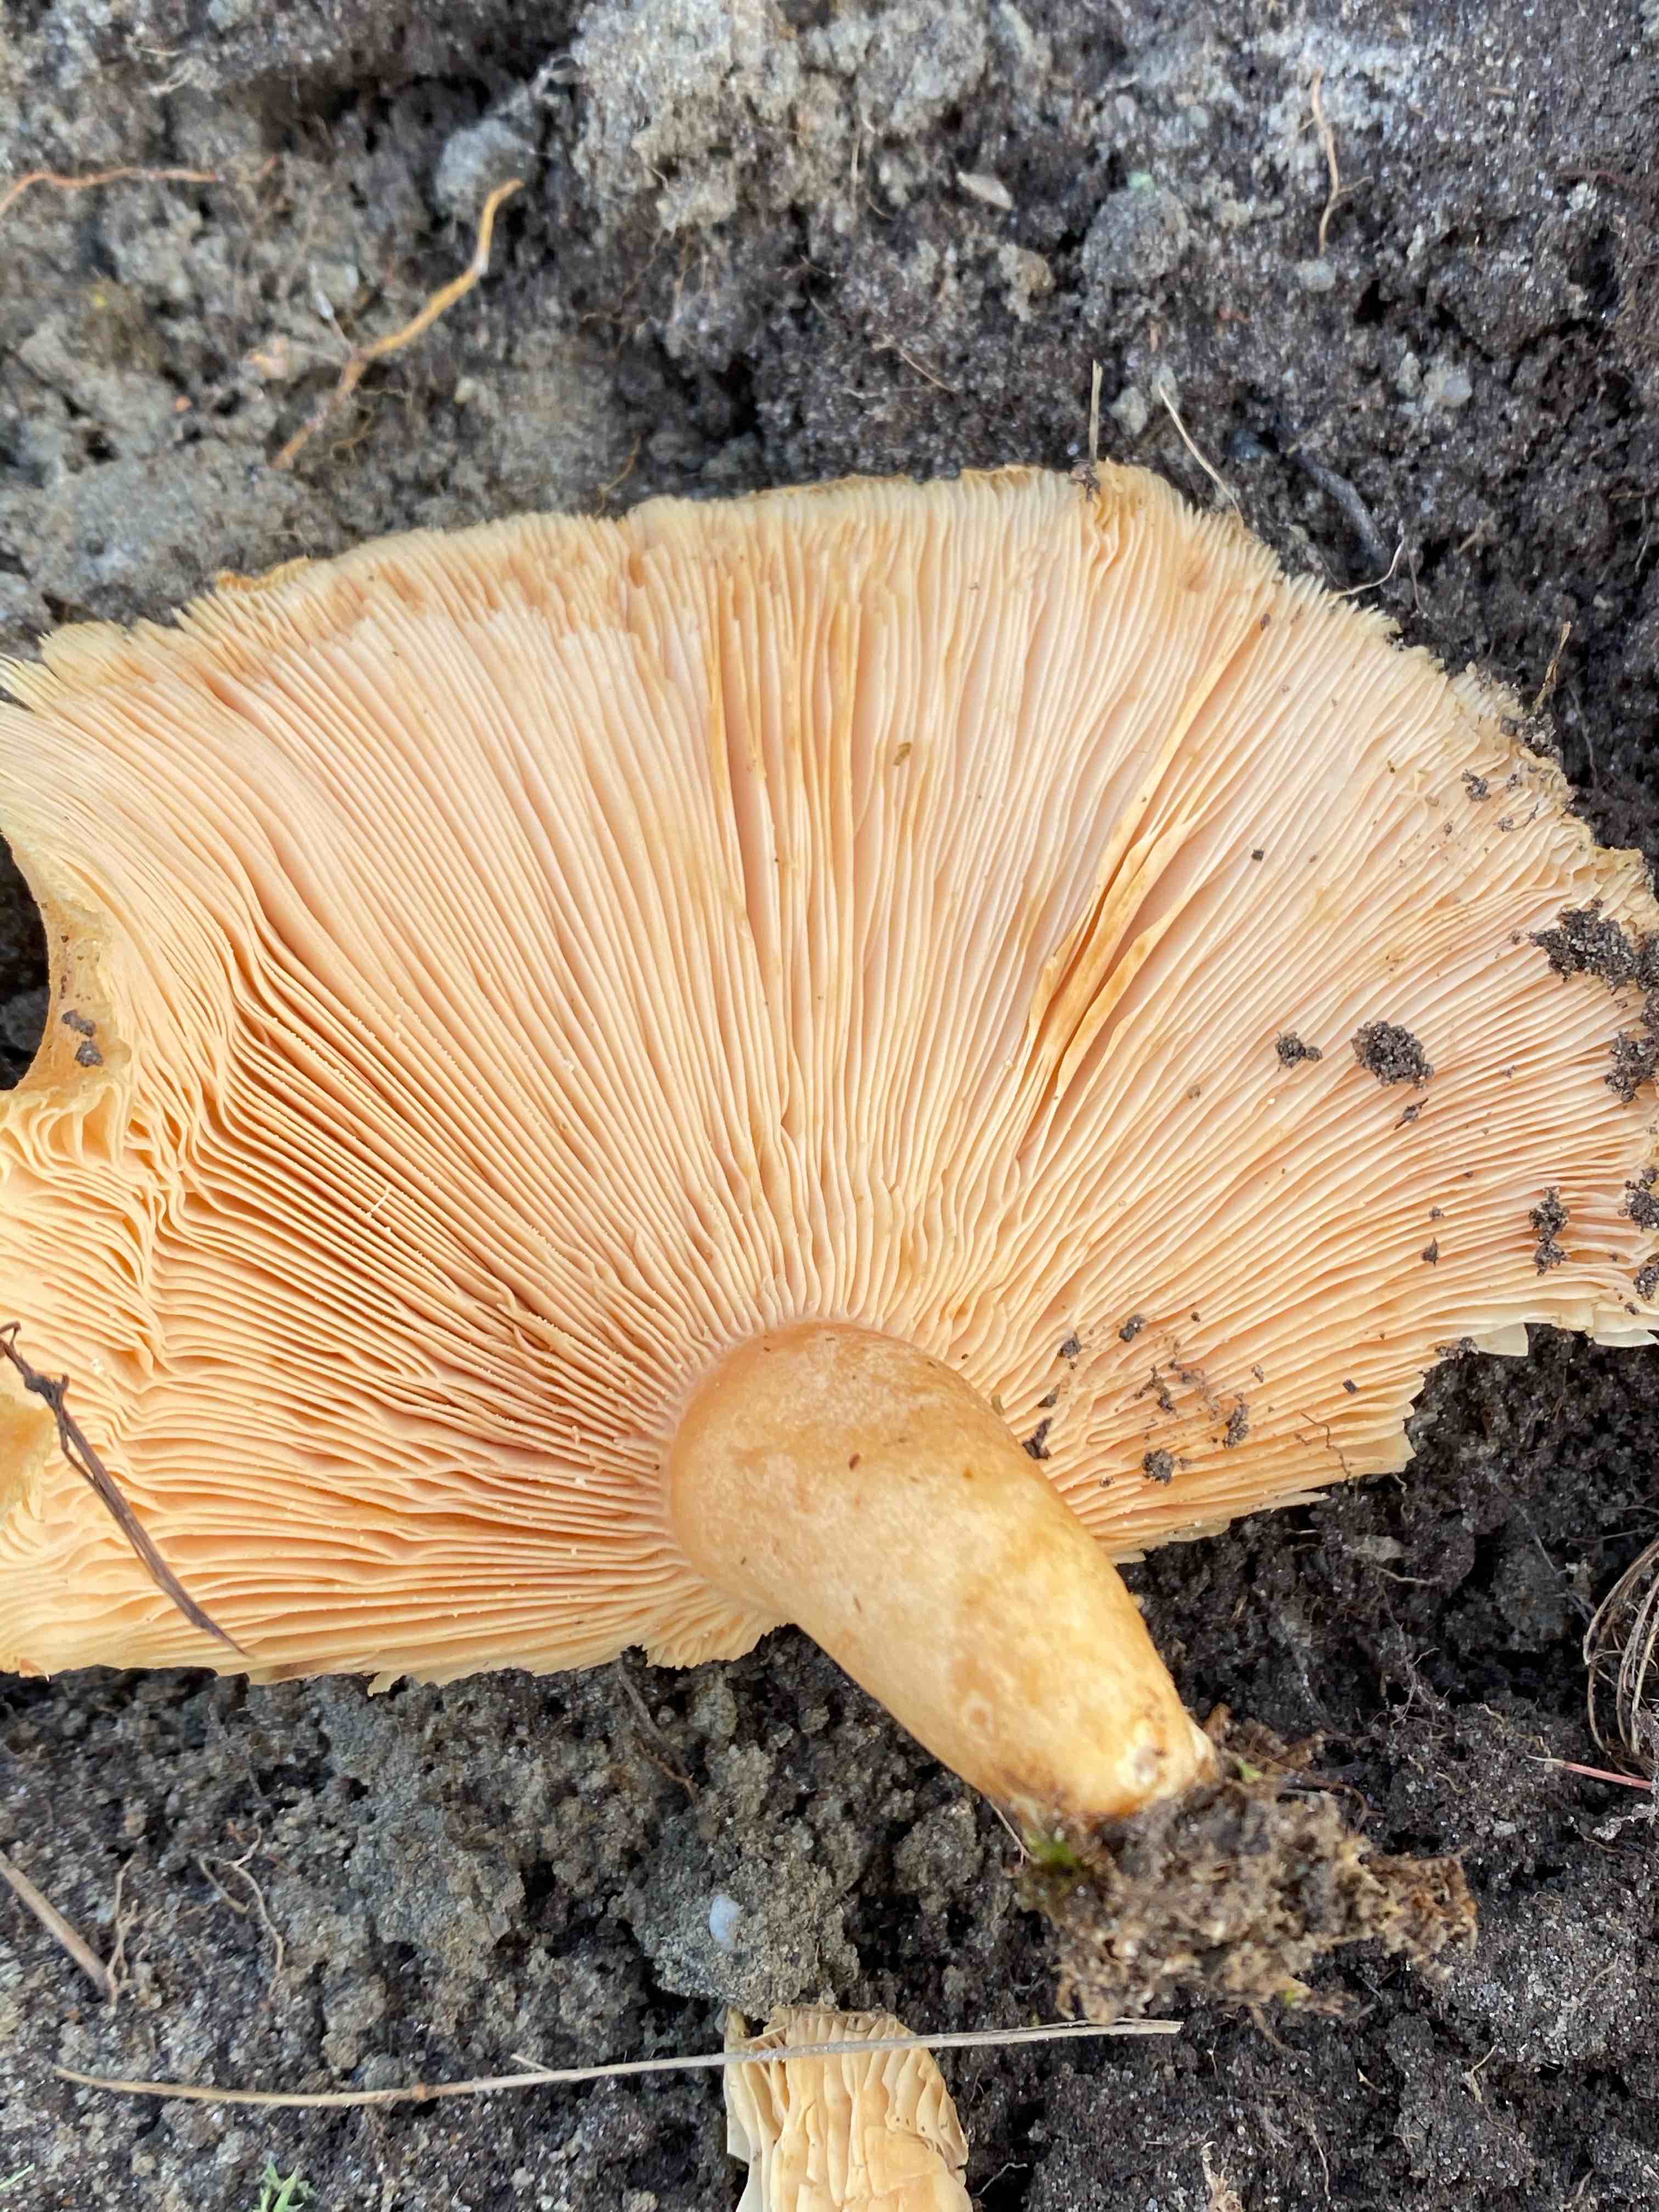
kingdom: Fungi
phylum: Basidiomycota
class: Agaricomycetes
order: Russulales
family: Russulaceae
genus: Lactarius
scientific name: Lactarius pubescens
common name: dunet mælkehat
